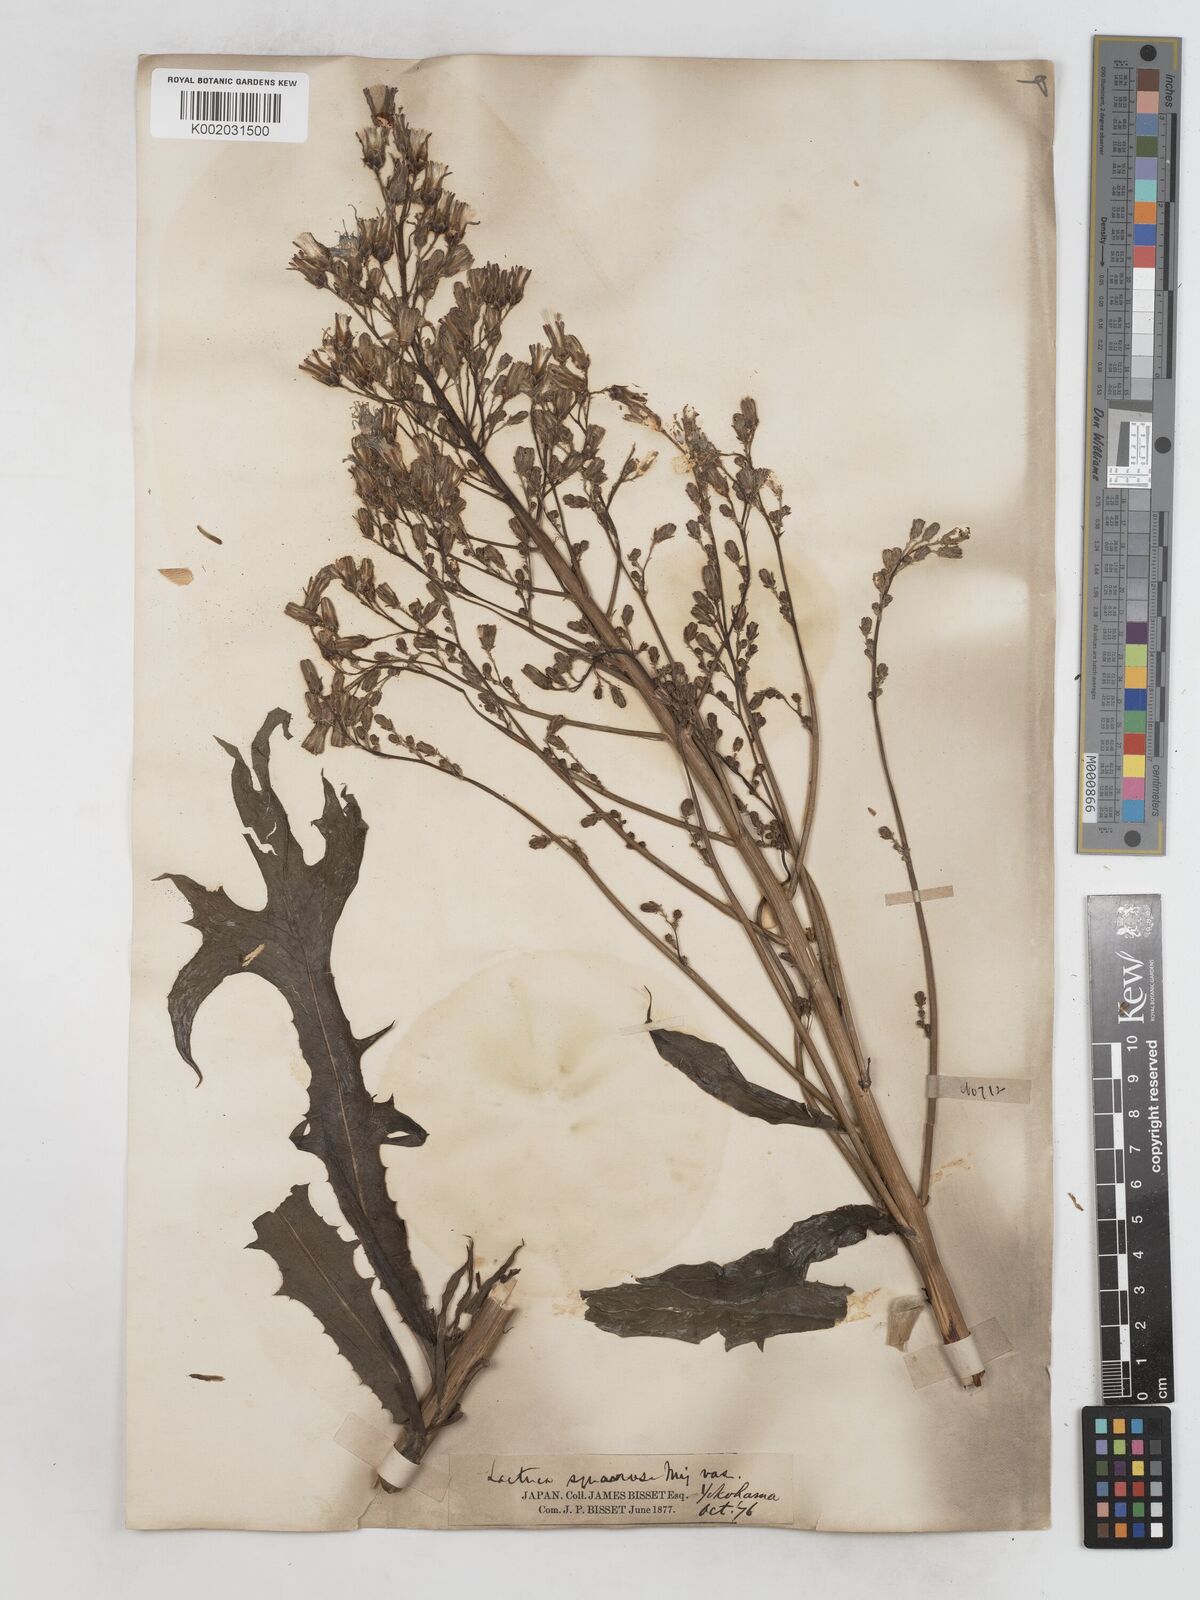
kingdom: Plantae
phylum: Tracheophyta
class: Magnoliopsida
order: Asterales
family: Asteraceae
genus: Lactuca
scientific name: Lactuca indica
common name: Wild lettuce
